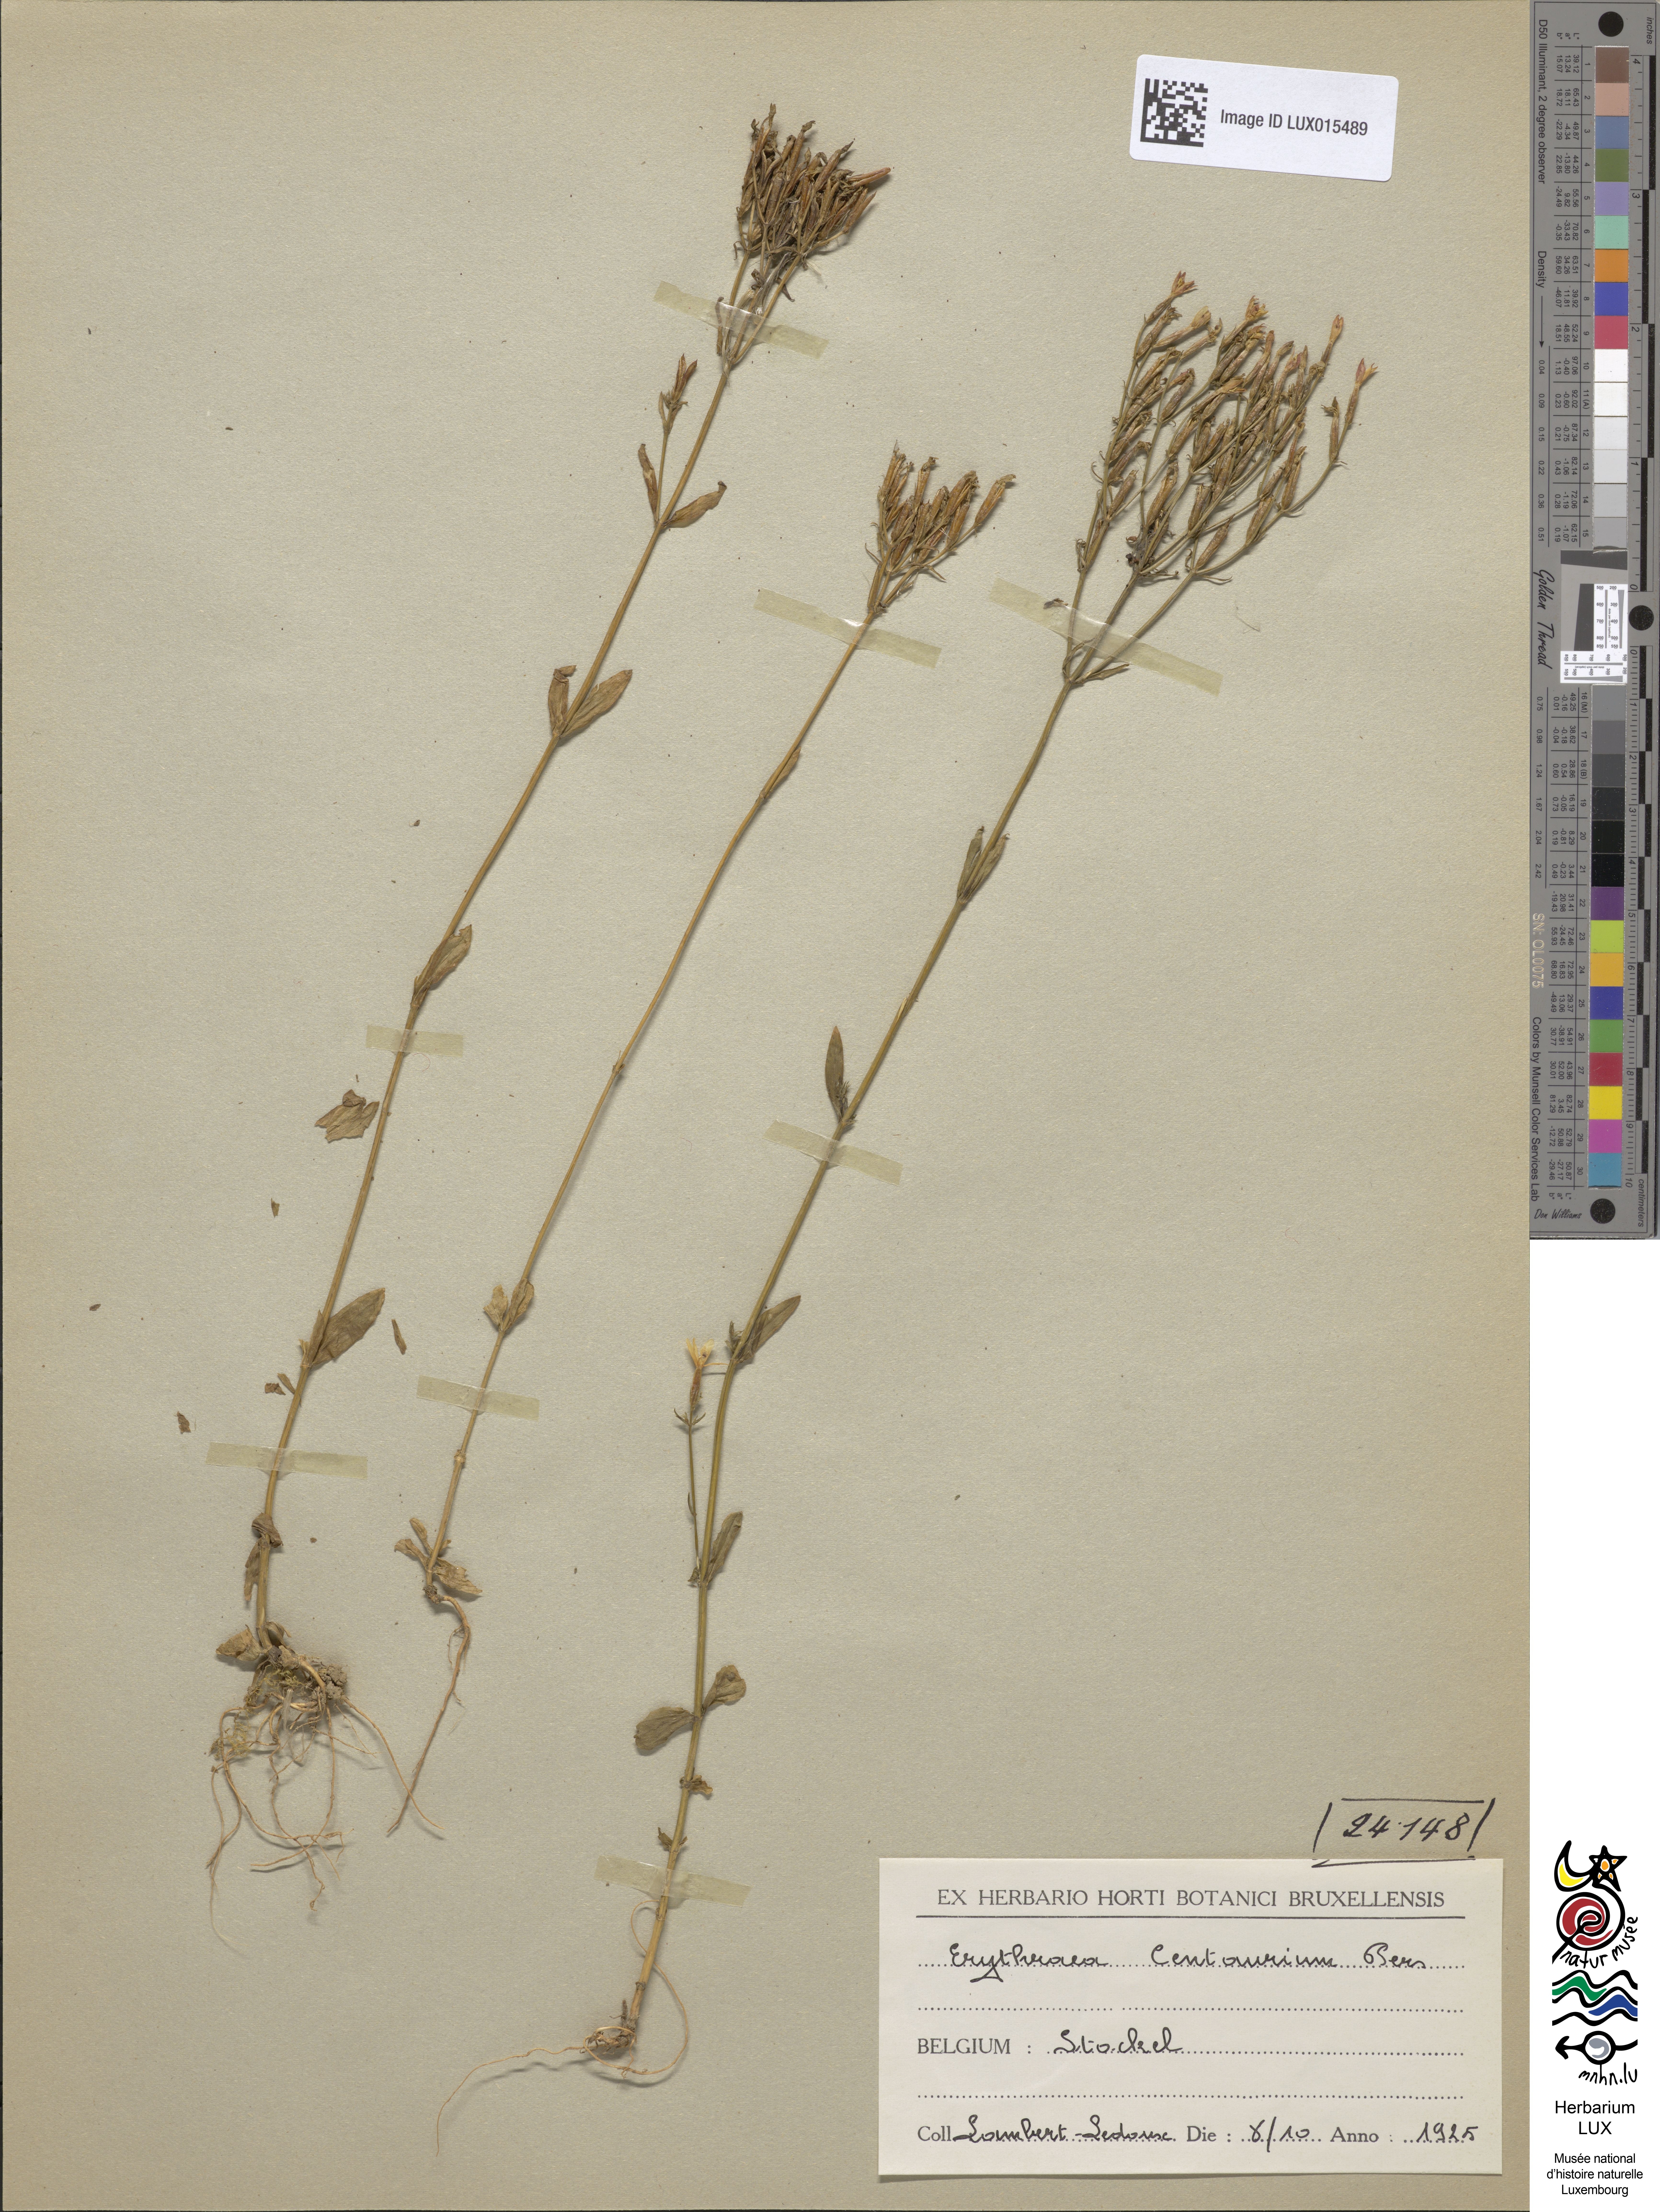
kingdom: Plantae
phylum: Tracheophyta
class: Magnoliopsida
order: Gentianales
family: Gentianaceae
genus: Centaurium
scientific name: Centaurium erythraea
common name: Common centaury
